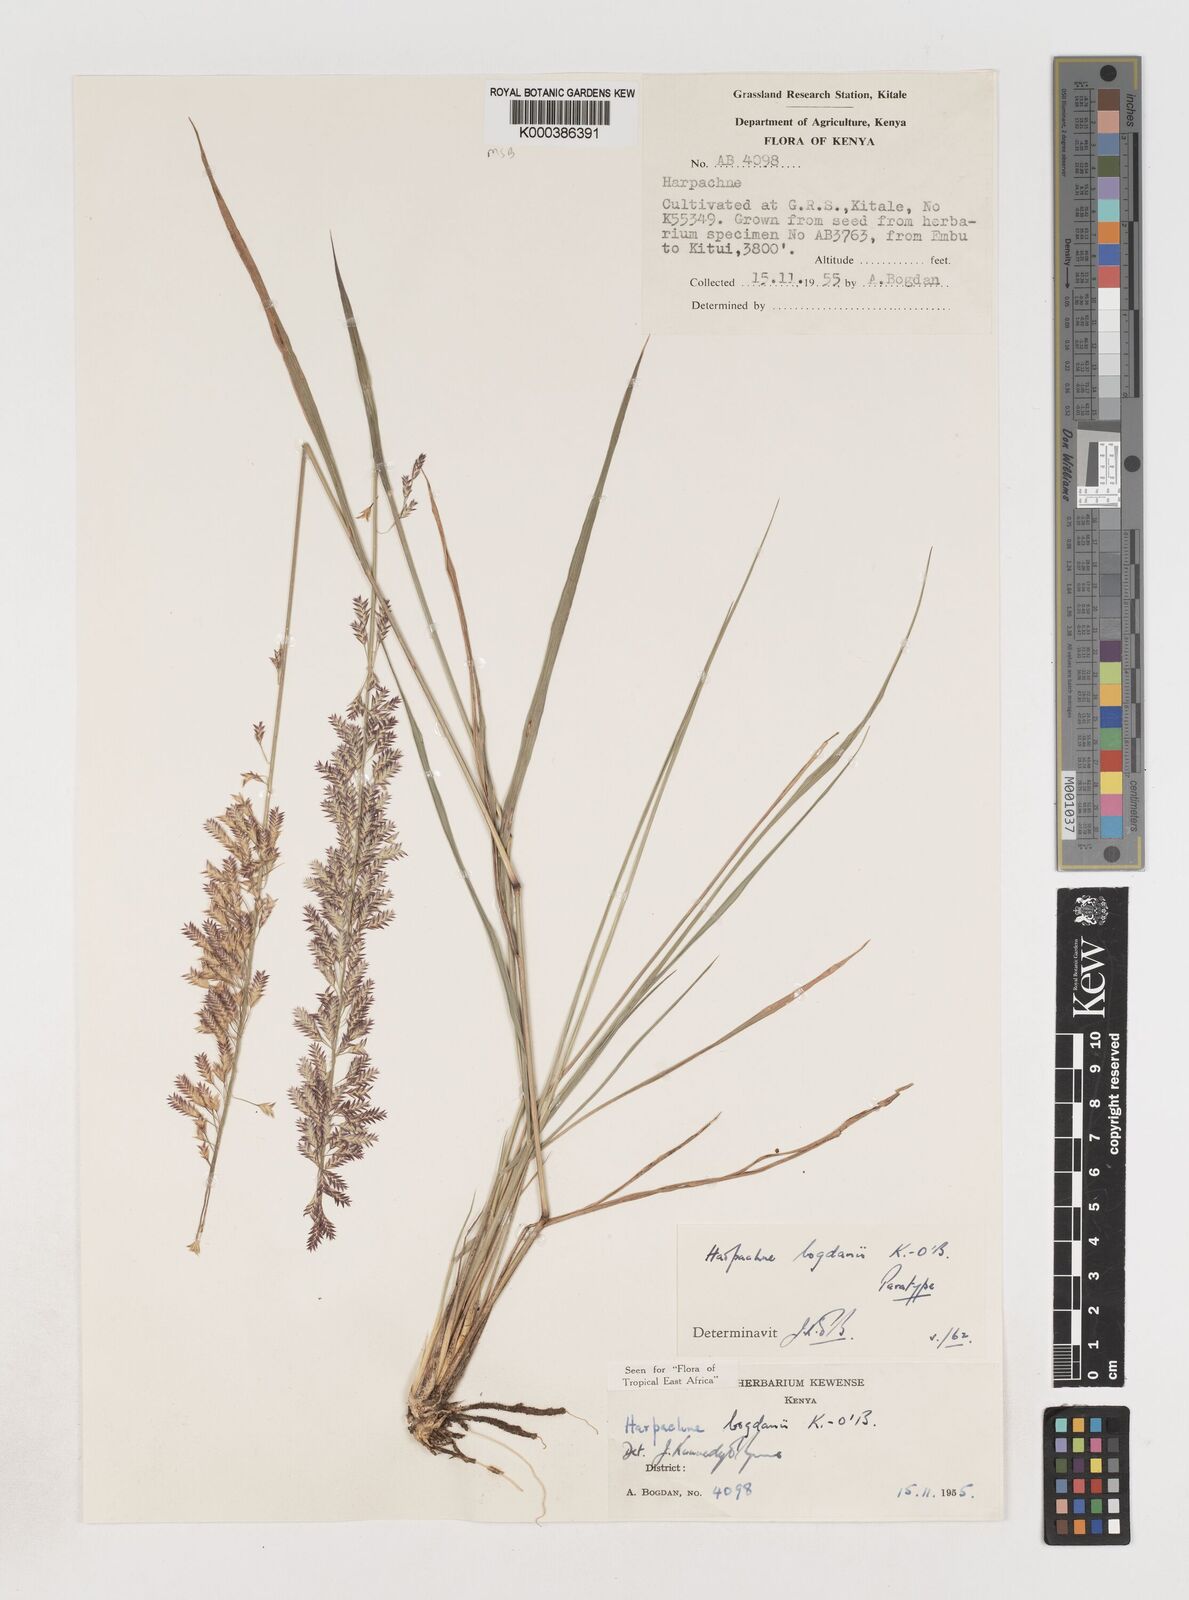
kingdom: Plantae
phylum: Tracheophyta
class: Liliopsida
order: Poales
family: Poaceae
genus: Harpachne
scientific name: Harpachne bogdanii
